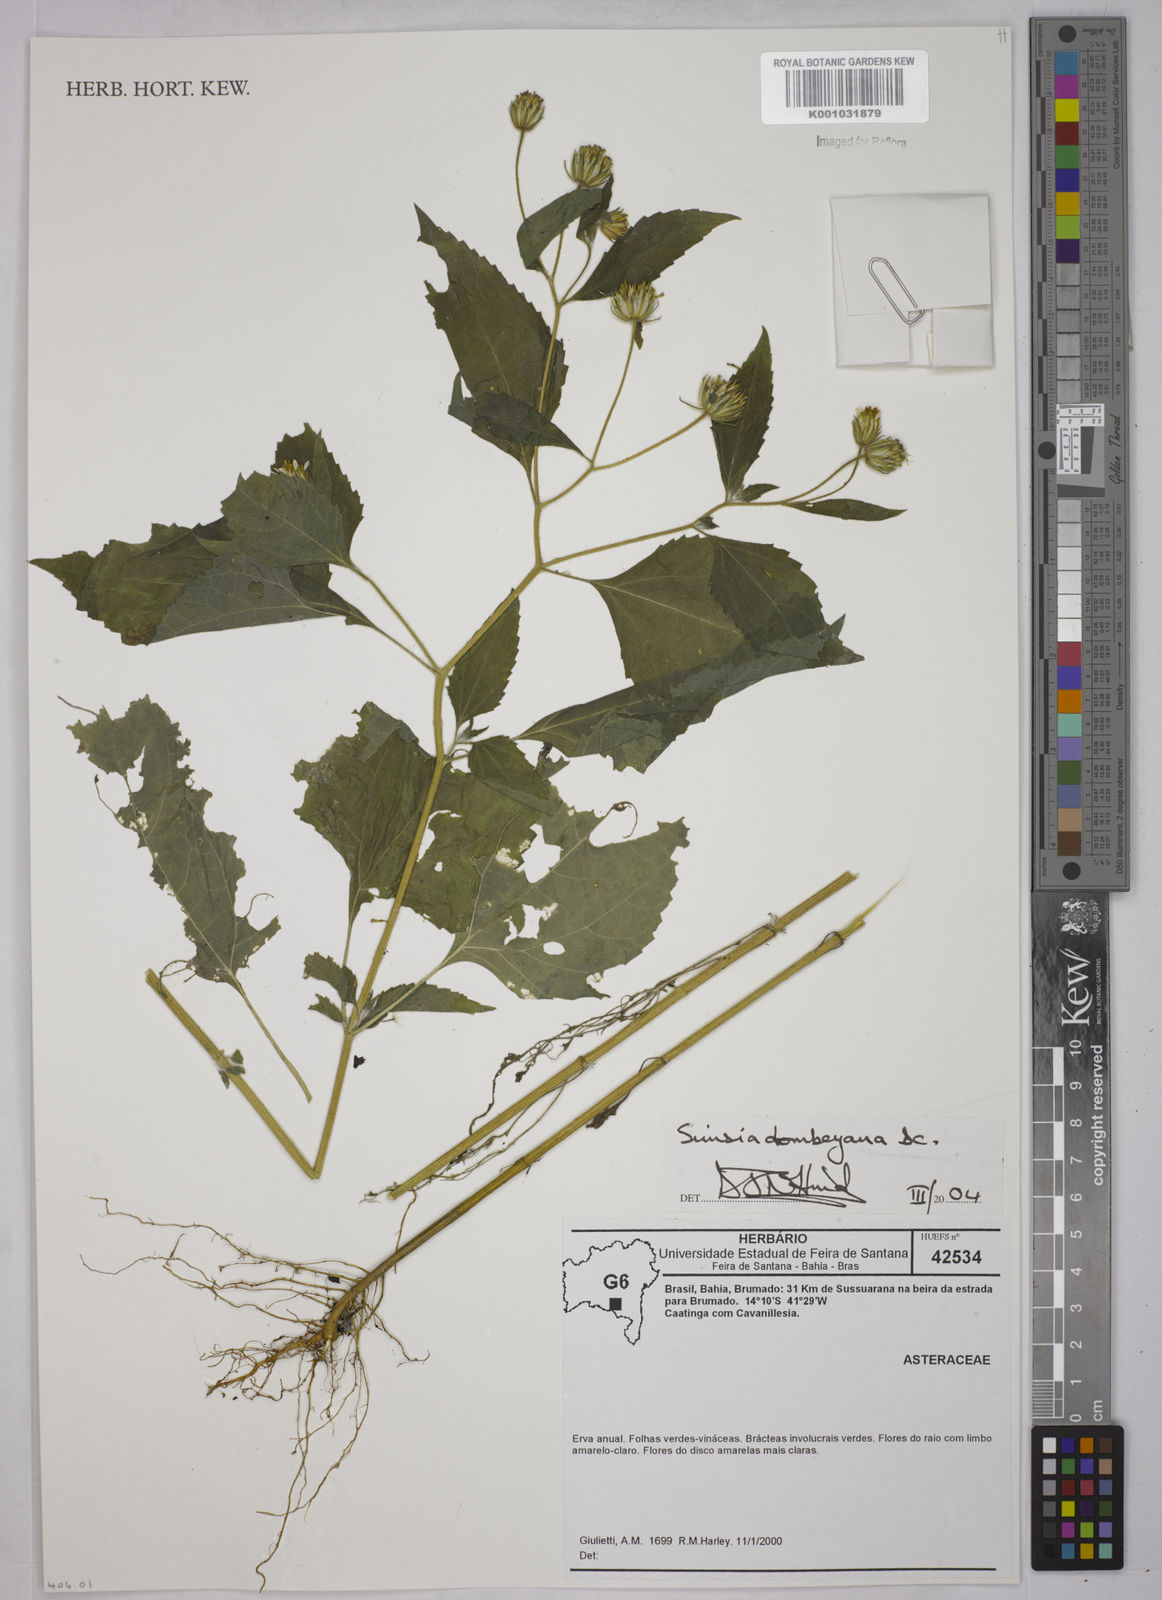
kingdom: Plantae
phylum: Tracheophyta
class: Magnoliopsida
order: Asterales
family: Asteraceae
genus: Simsia
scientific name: Simsia dombeyana
